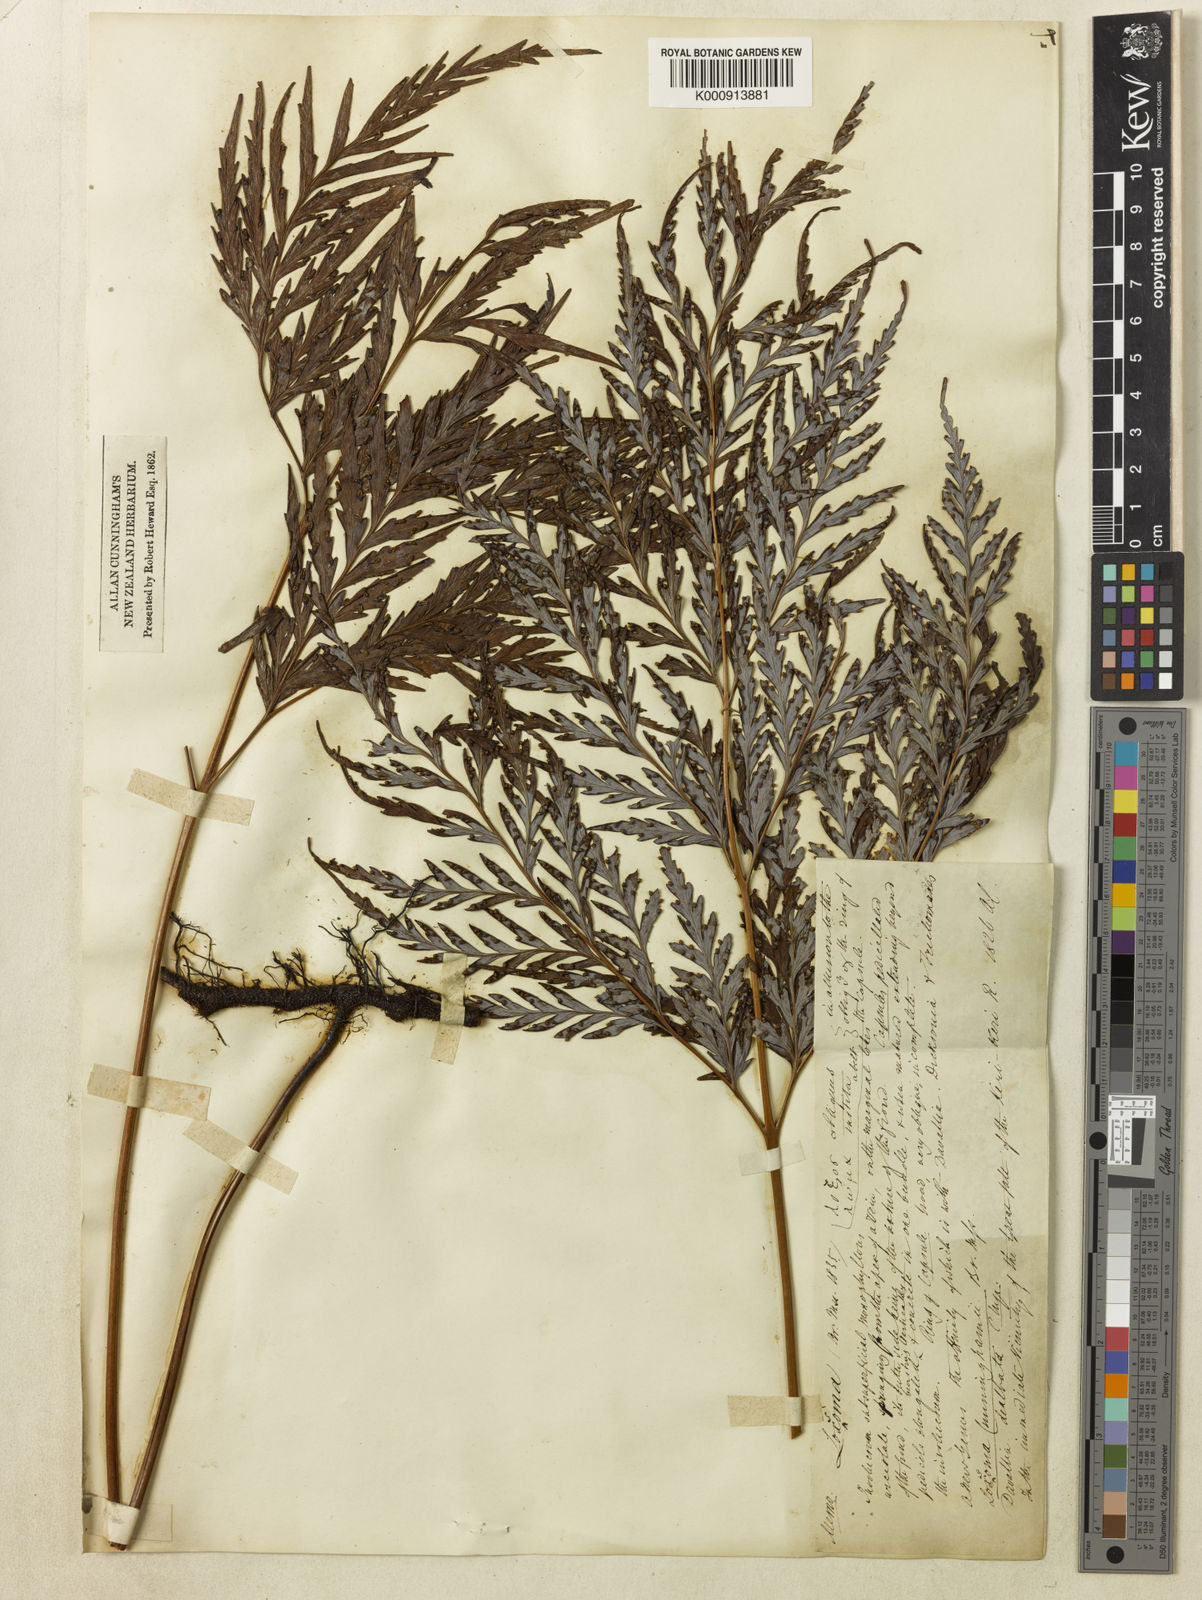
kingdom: Plantae
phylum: Tracheophyta
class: Polypodiopsida
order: Cyatheales
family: Cyatheaceae
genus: Loxsoma
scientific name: Loxsoma cunninghamii
